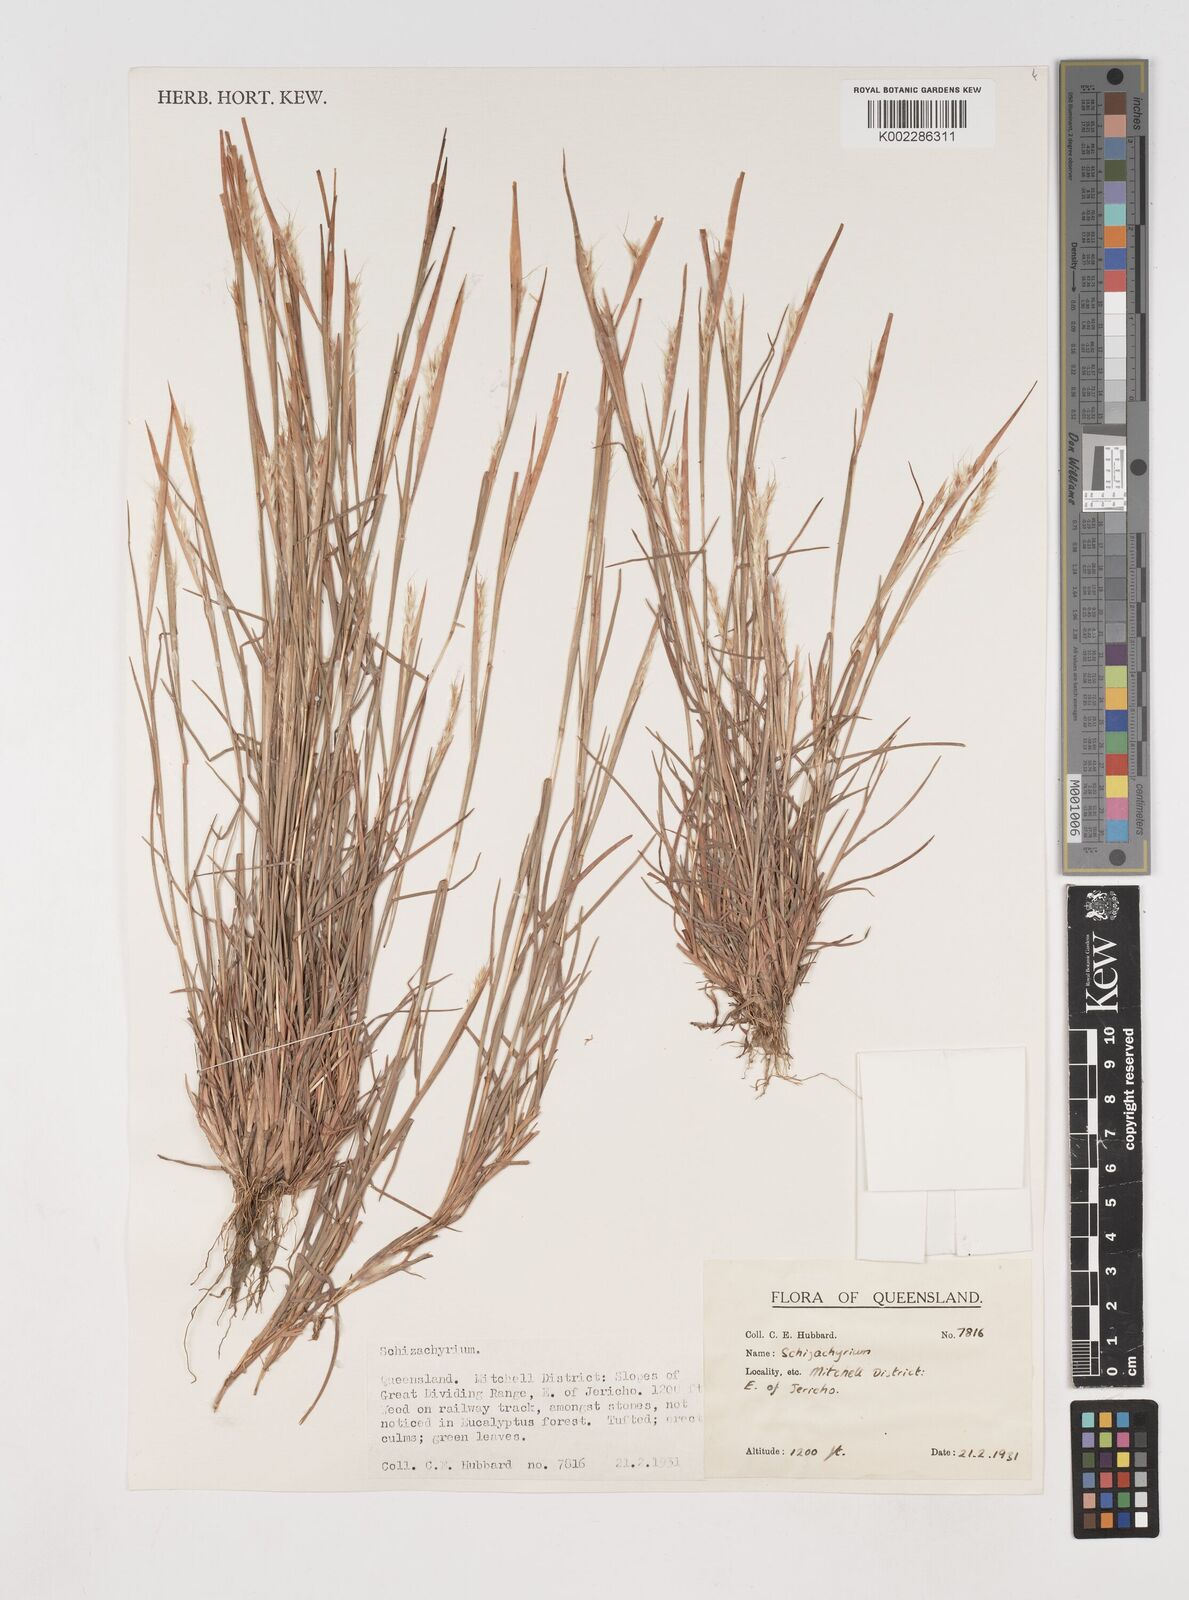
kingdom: Plantae
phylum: Tracheophyta
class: Liliopsida
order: Poales
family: Poaceae
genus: Schizachyrium
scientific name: Schizachyrium
